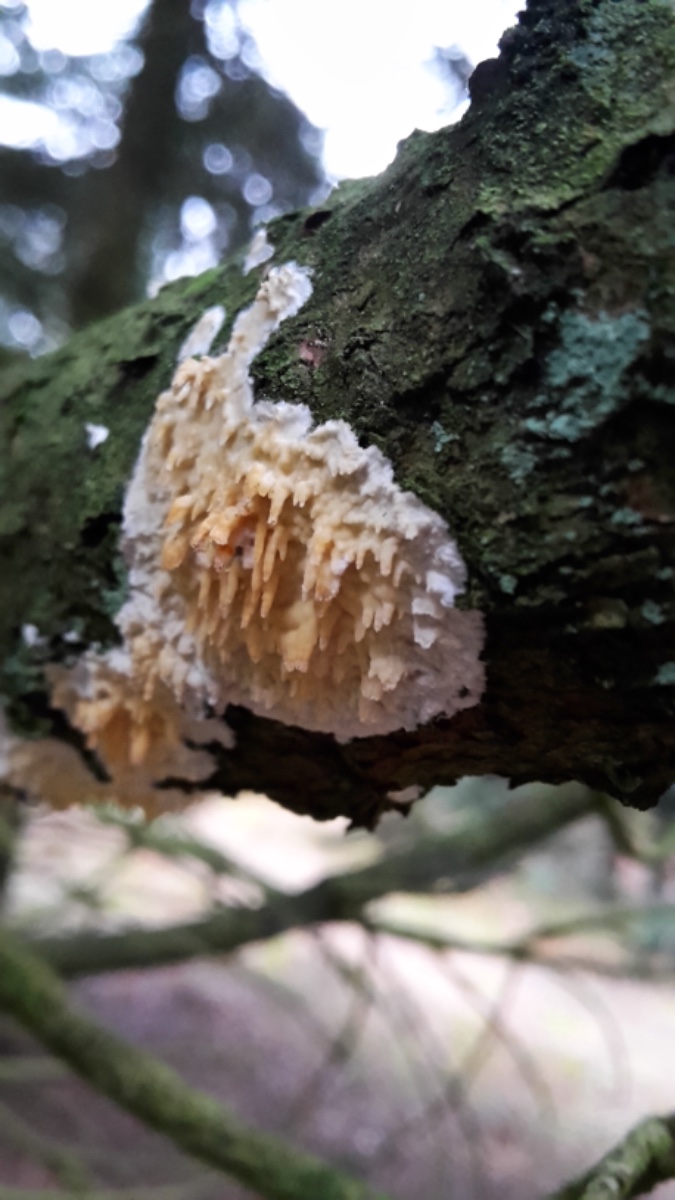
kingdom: Fungi
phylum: Basidiomycota
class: Agaricomycetes
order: Hymenochaetales
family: Schizoporaceae
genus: Xylodon
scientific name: Xylodon radula
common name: grovtandet kalkskind
